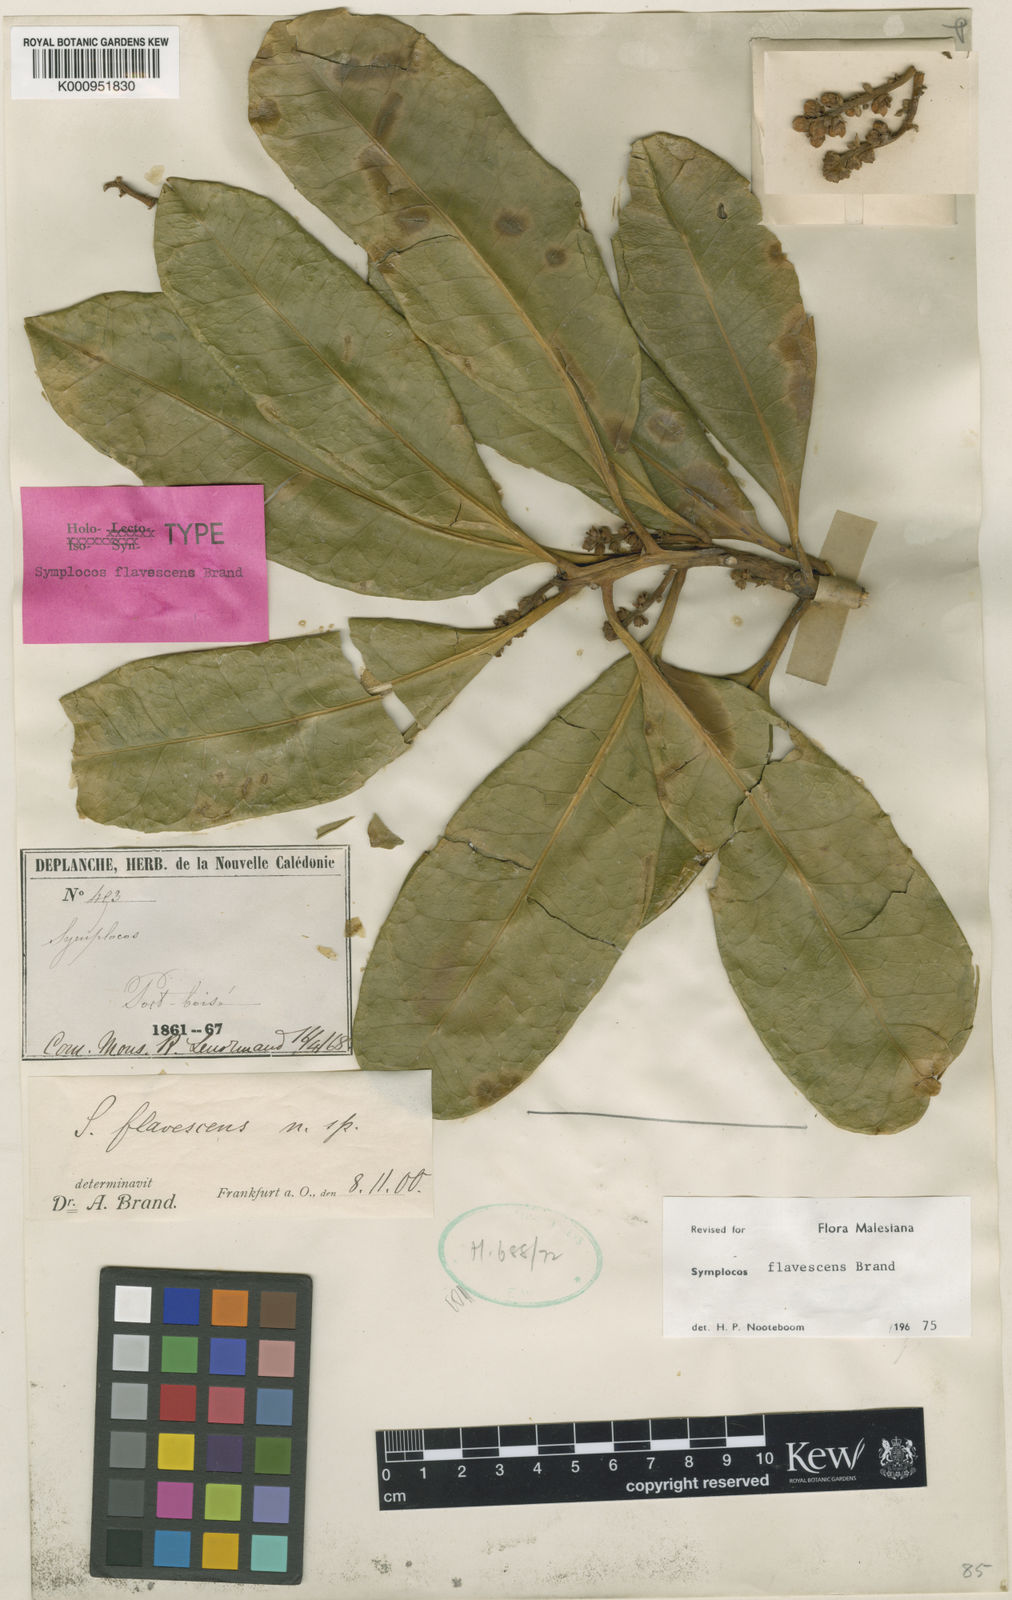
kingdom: Plantae
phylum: Tracheophyta
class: Magnoliopsida
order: Ericales
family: Symplocaceae
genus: Symplocos
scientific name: Symplocos flavescens
